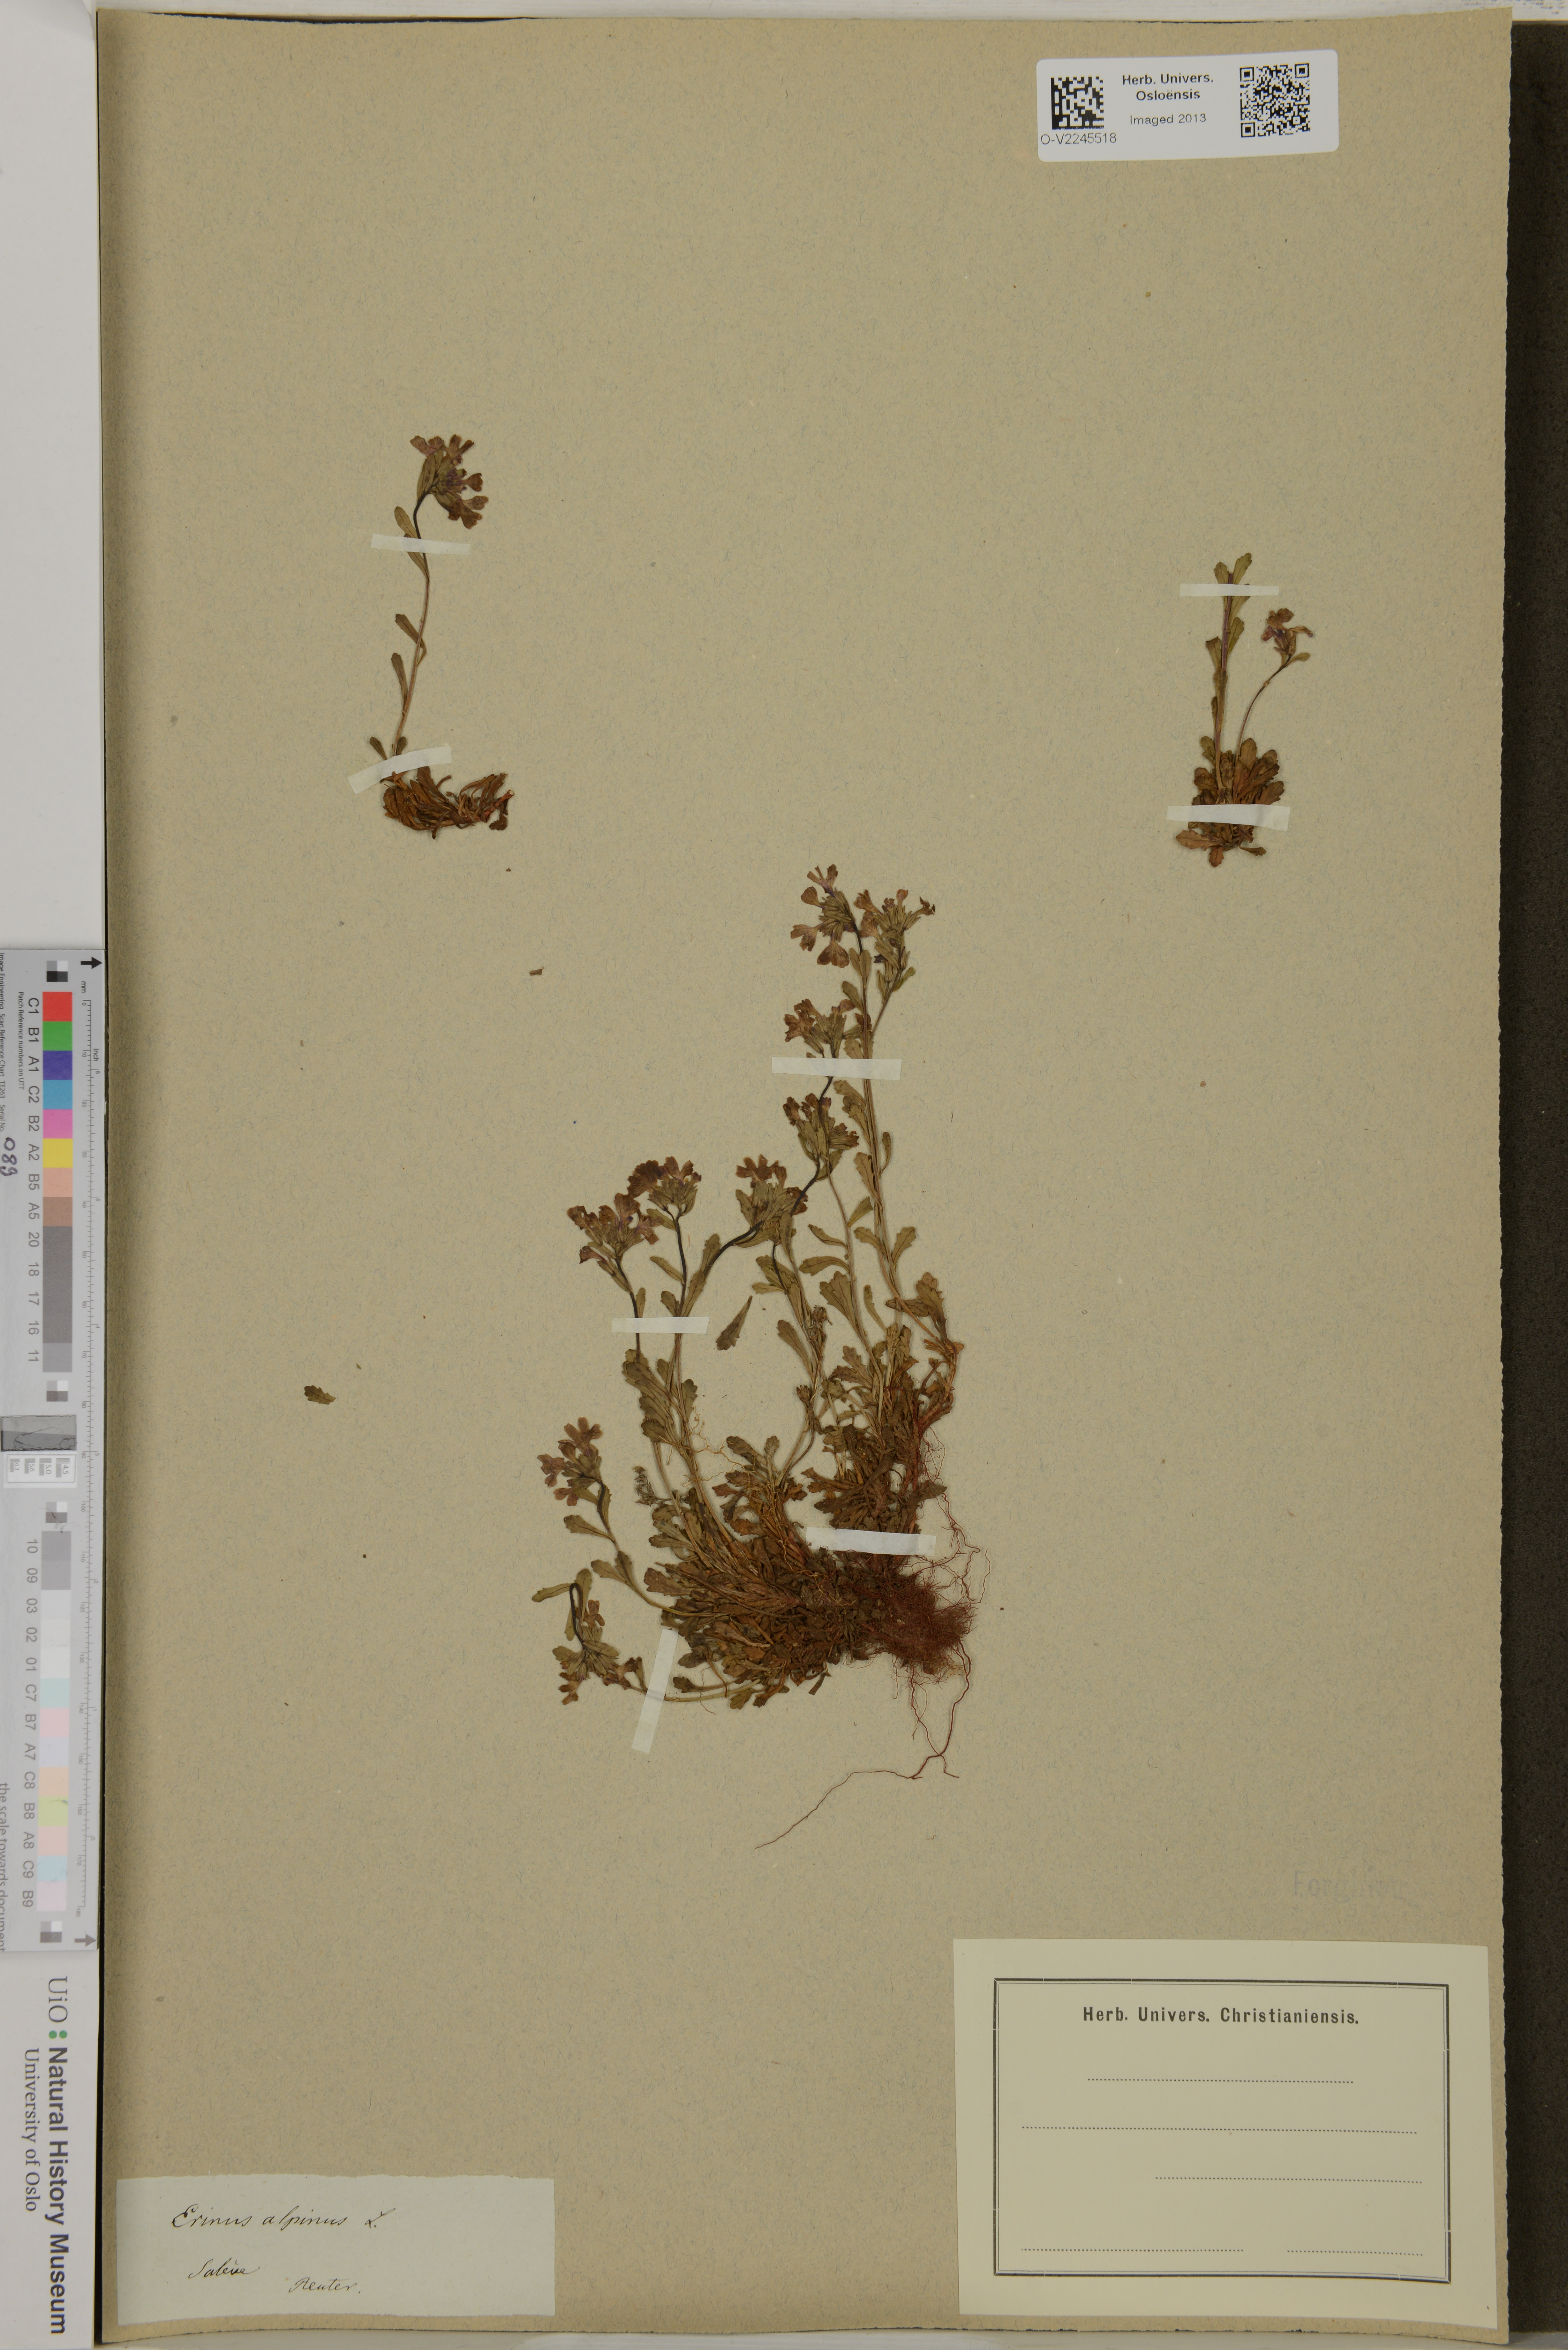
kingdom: Plantae
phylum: Tracheophyta
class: Magnoliopsida
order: Lamiales
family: Plantaginaceae
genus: Erinus
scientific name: Erinus alpinus
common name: Fairy foxglove
